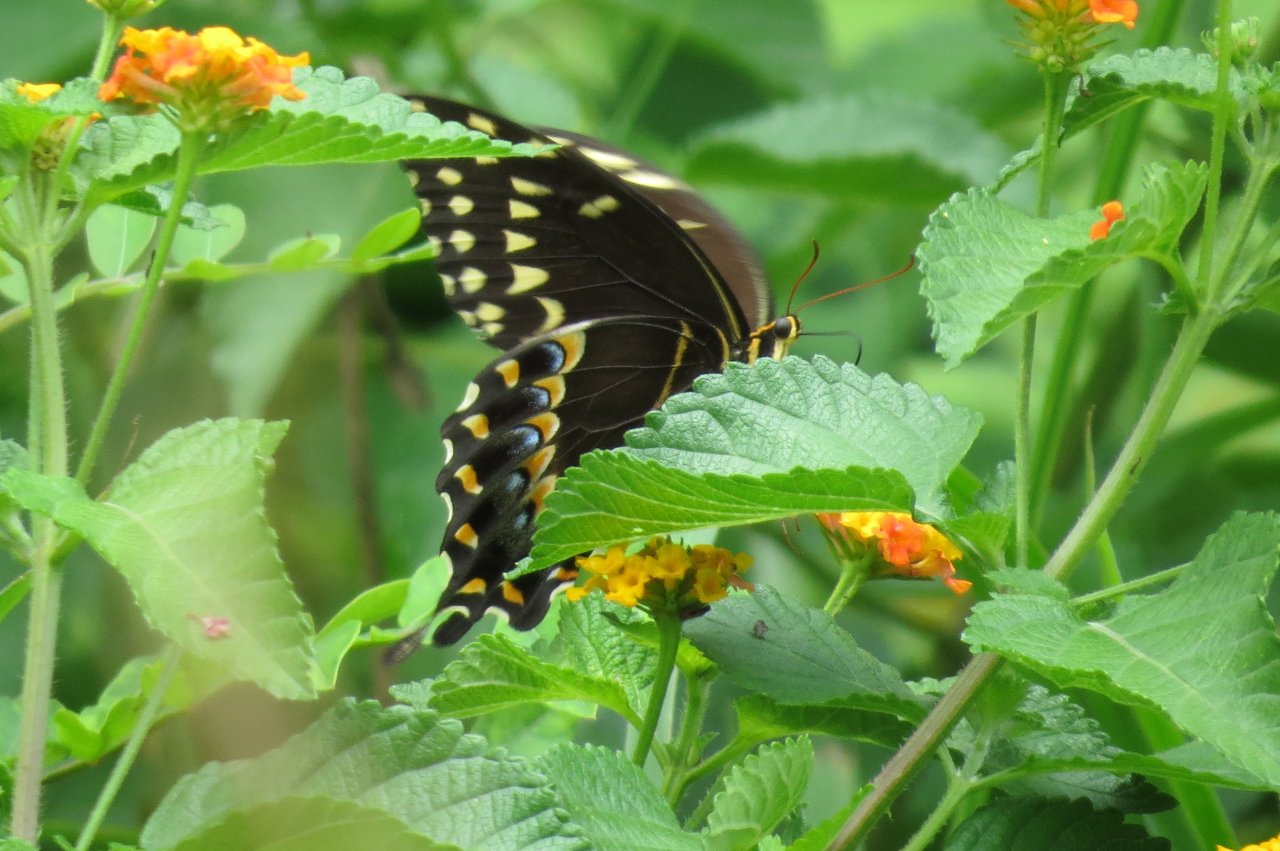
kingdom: Animalia
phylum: Arthropoda
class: Insecta
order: Lepidoptera
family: Papilionidae
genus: Pterourus
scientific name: Pterourus palamedes
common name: Palamedes Swallowtail
